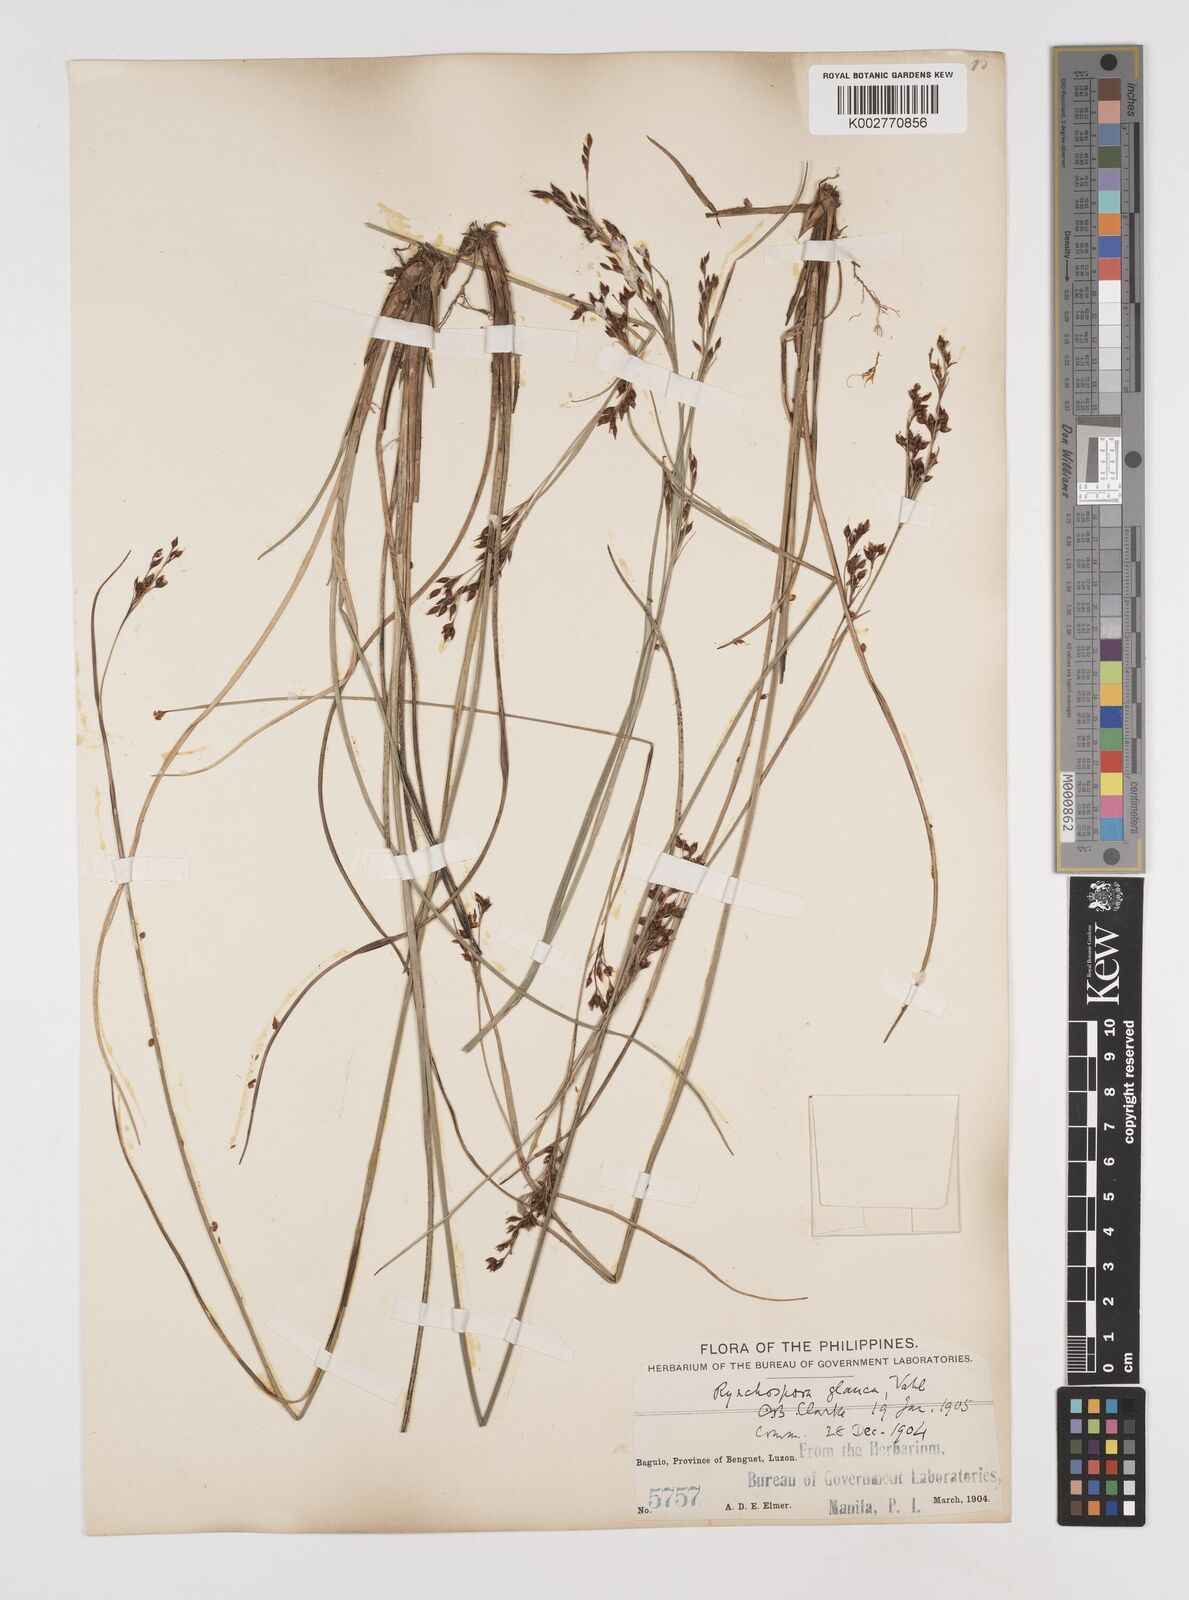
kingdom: Plantae
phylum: Tracheophyta
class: Liliopsida
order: Poales
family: Cyperaceae
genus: Rhynchospora
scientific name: Rhynchospora rugosa
